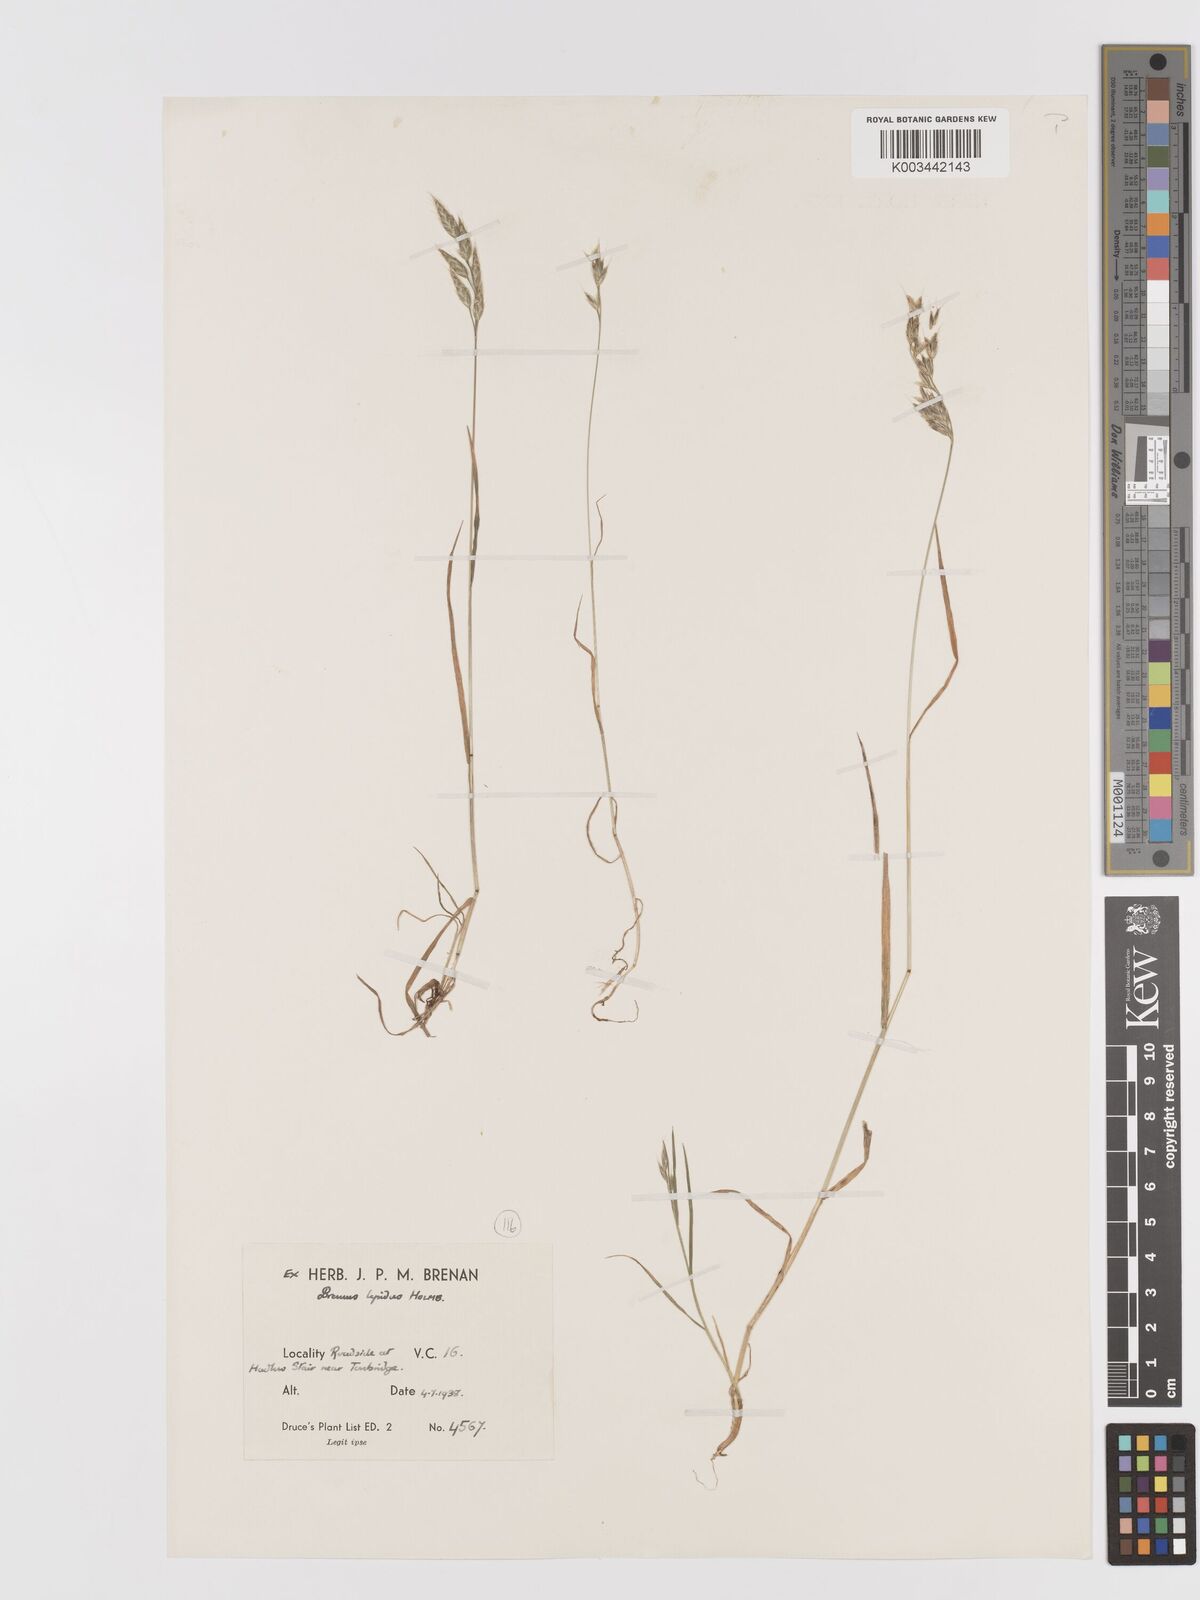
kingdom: Plantae
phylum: Tracheophyta
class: Liliopsida
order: Poales
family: Poaceae
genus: Bromus
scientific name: Bromus lepidus
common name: Slender soft-brome
